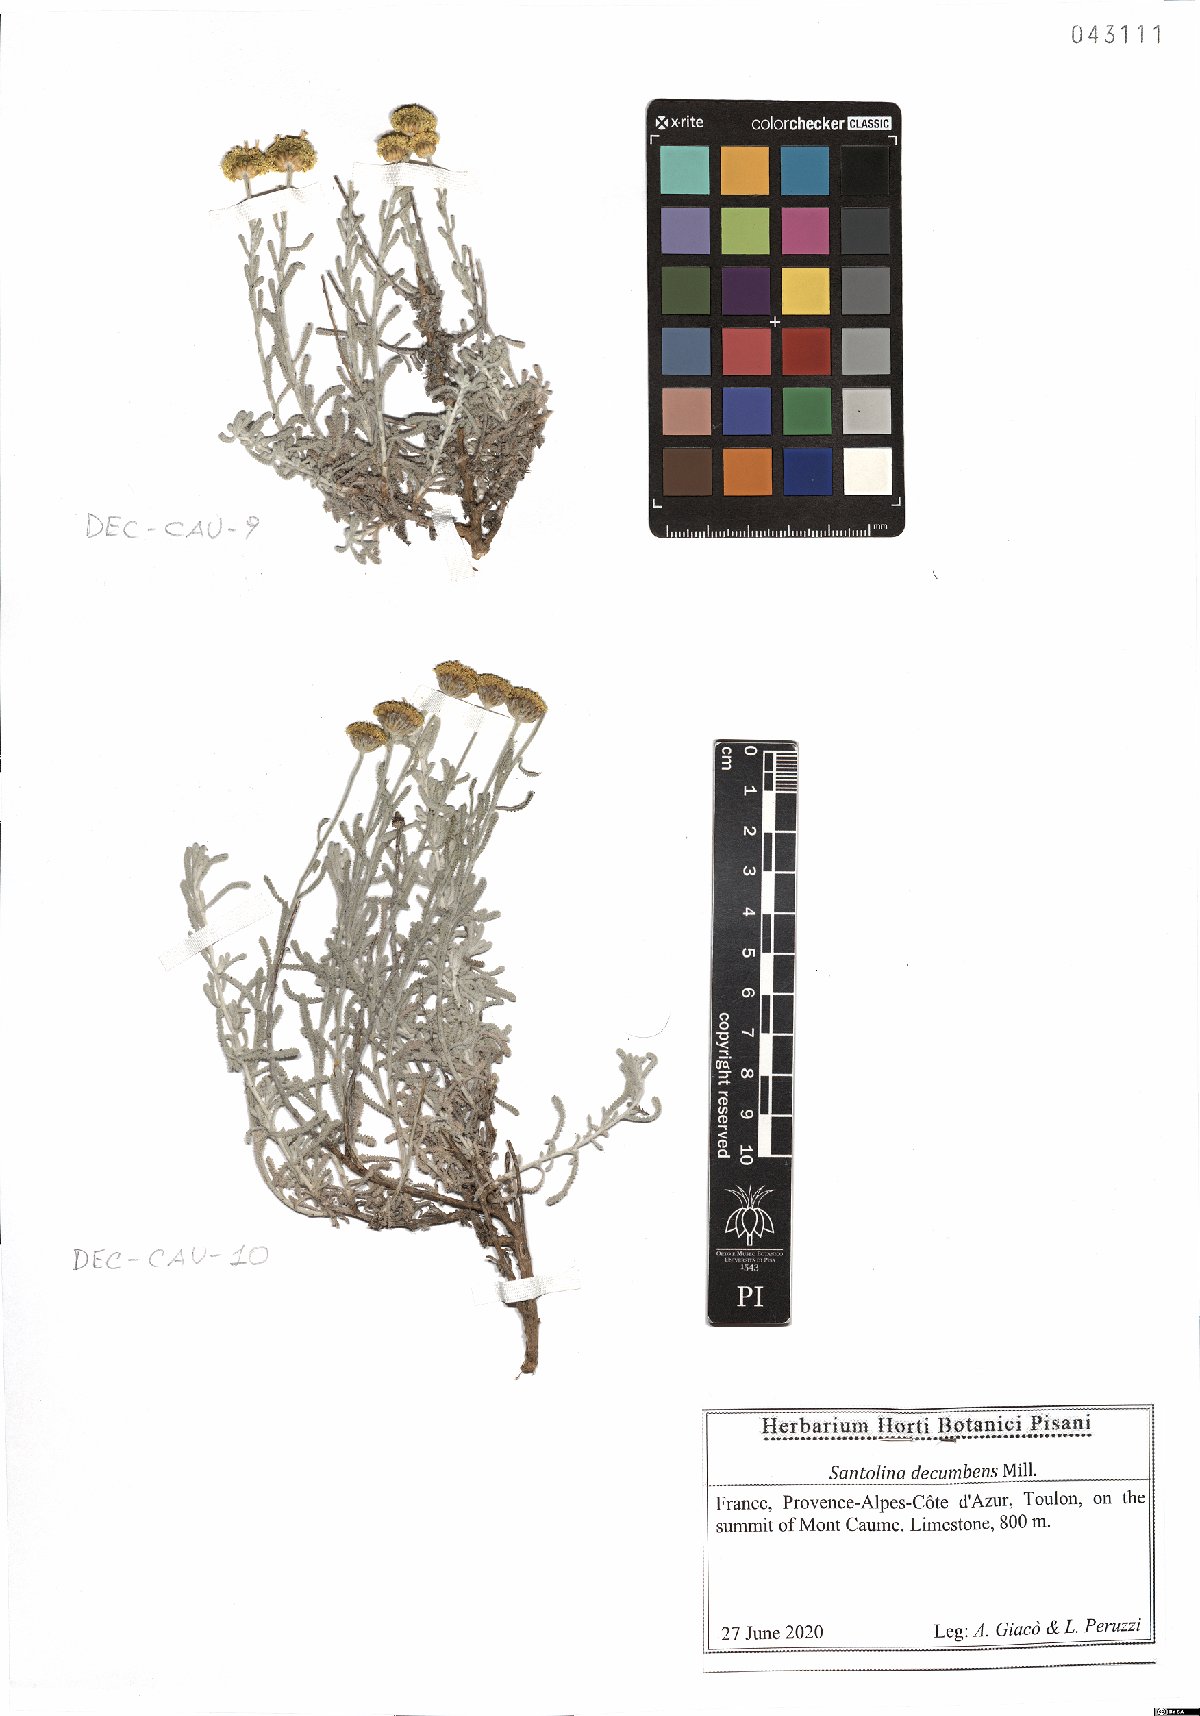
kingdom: Plantae
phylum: Tracheophyta
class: Magnoliopsida
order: Asterales
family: Asteraceae
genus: Santolina
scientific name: Santolina decumbens
